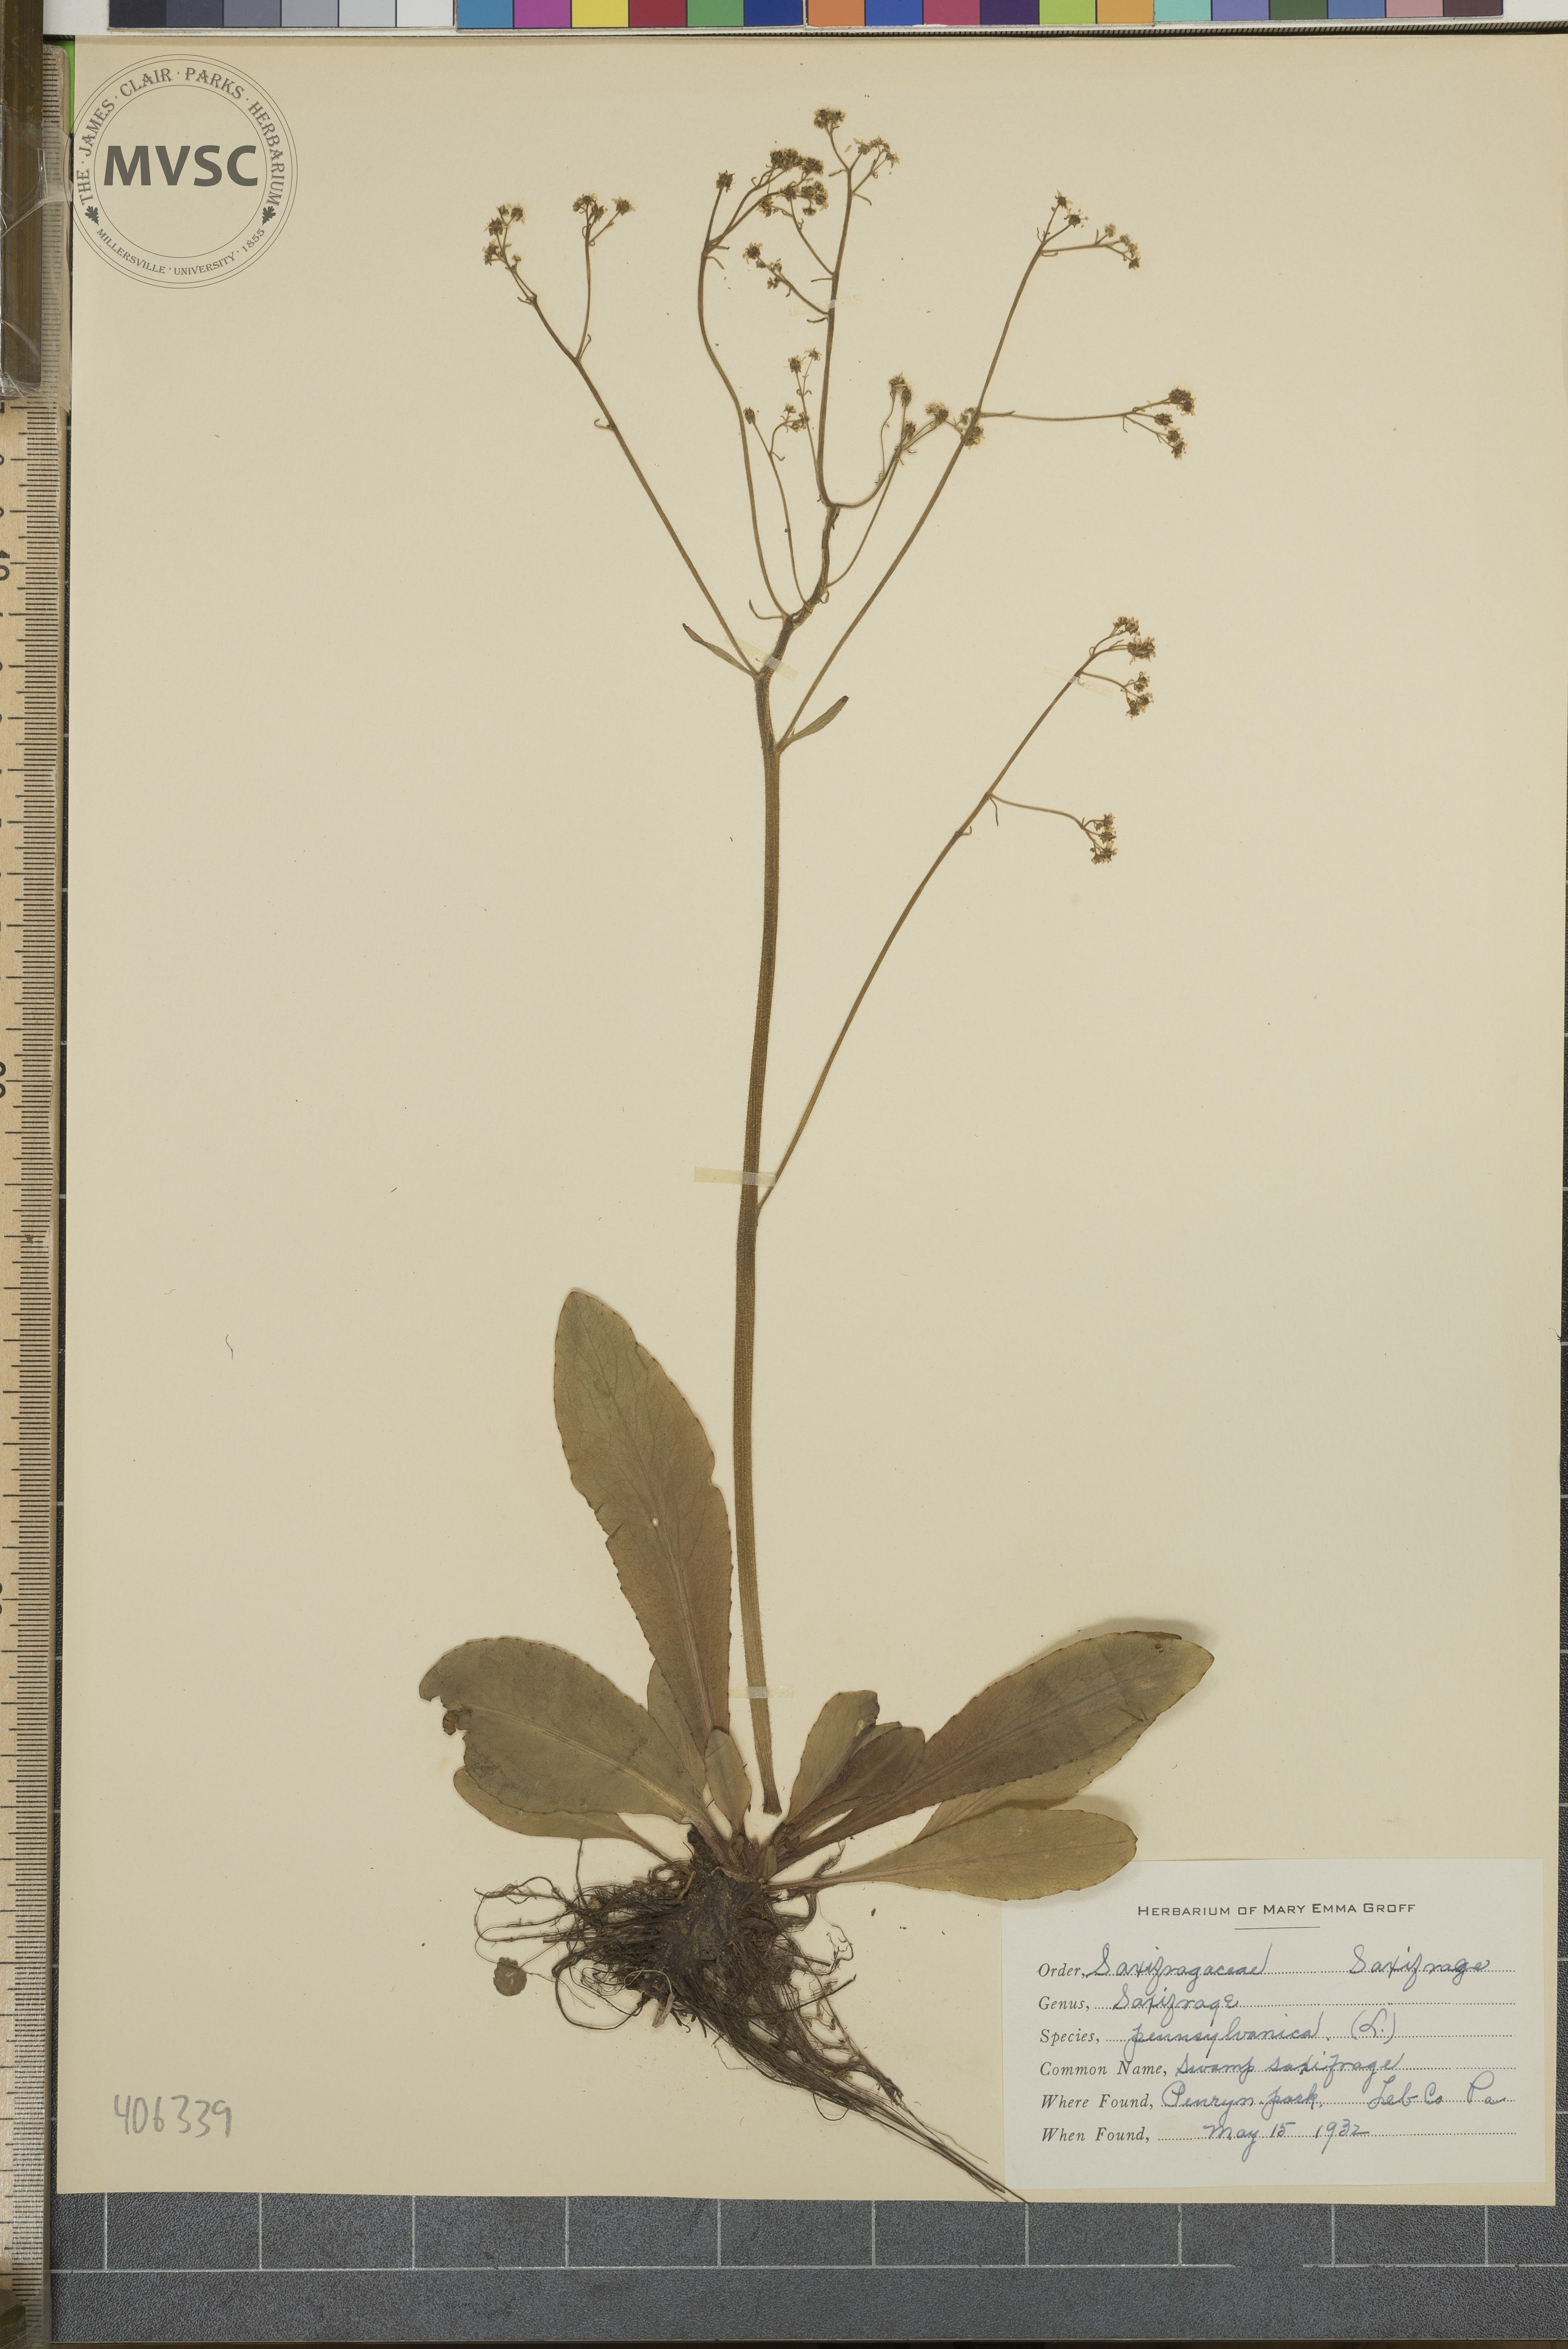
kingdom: Plantae
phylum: Tracheophyta
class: Magnoliopsida
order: Saxifragales
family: Saxifragaceae
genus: Micranthes
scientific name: Micranthes pensylvanica
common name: swamp saxifrage
